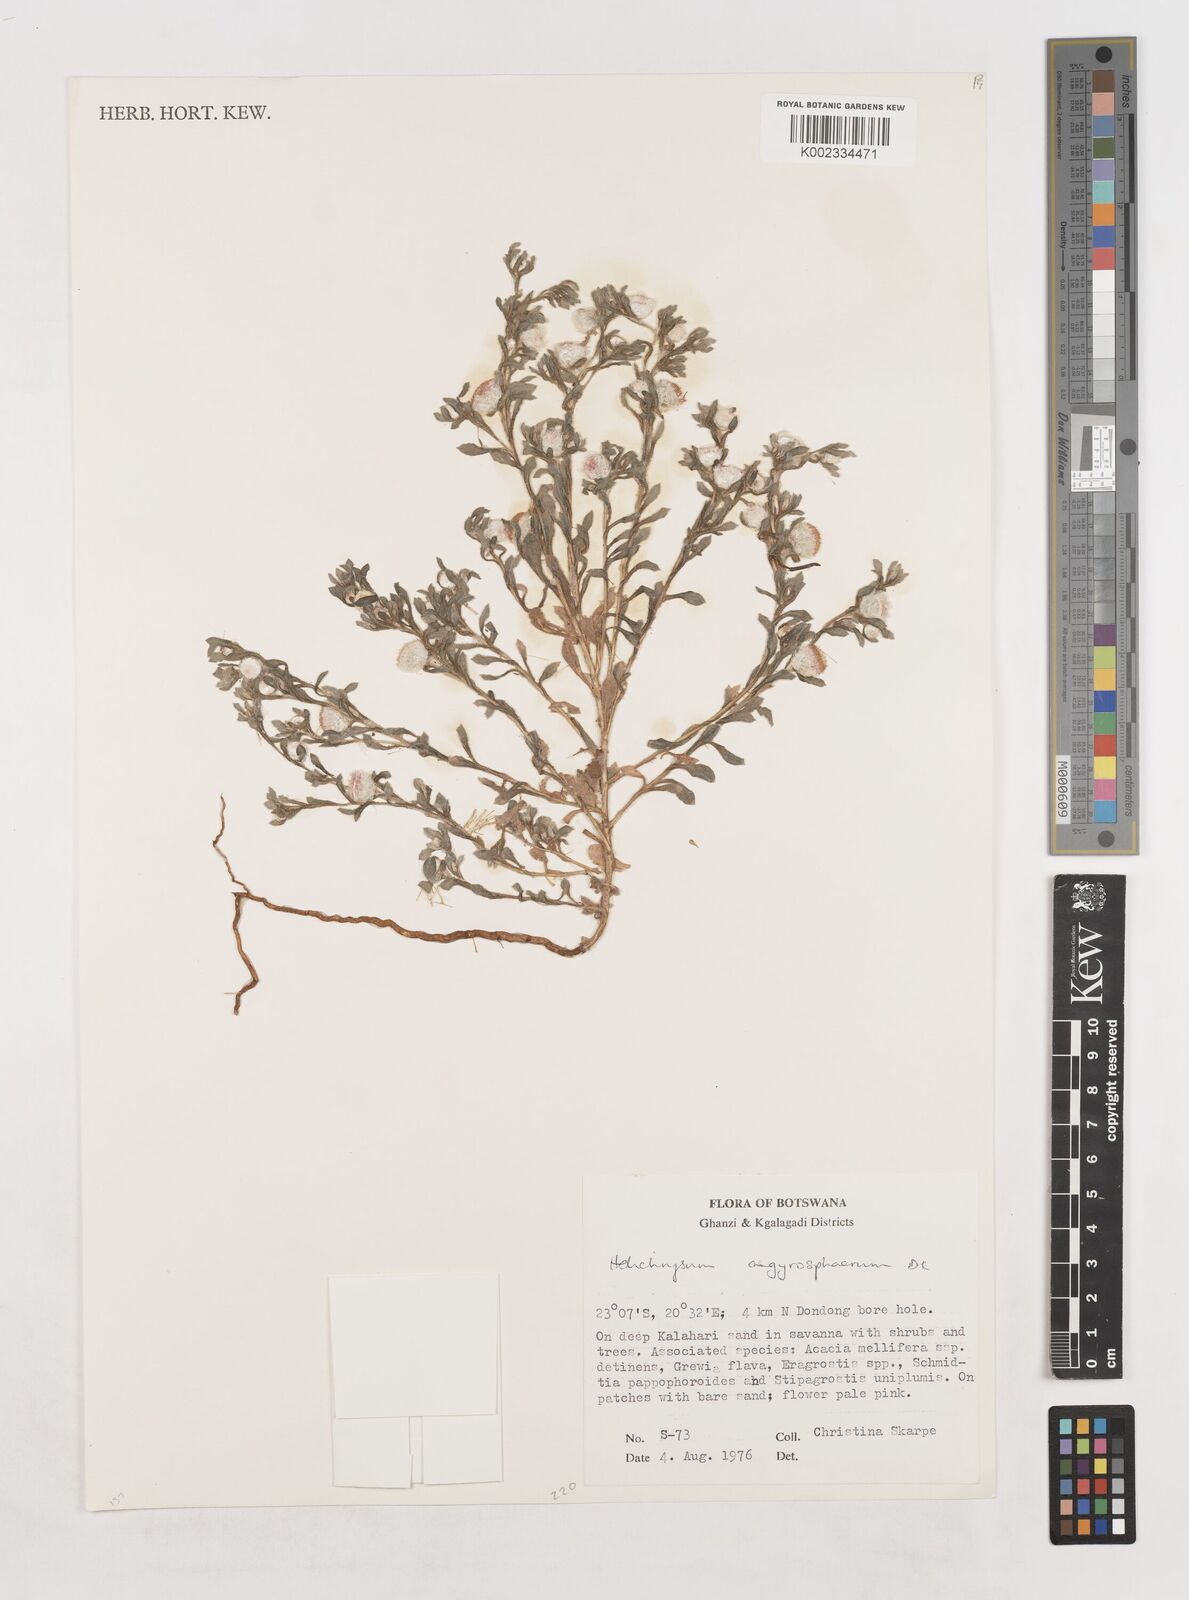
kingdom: Plantae
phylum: Tracheophyta
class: Magnoliopsida
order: Asterales
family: Asteraceae
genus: Helichrysum
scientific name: Helichrysum argyrosphaerum
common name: Wild everlasting
